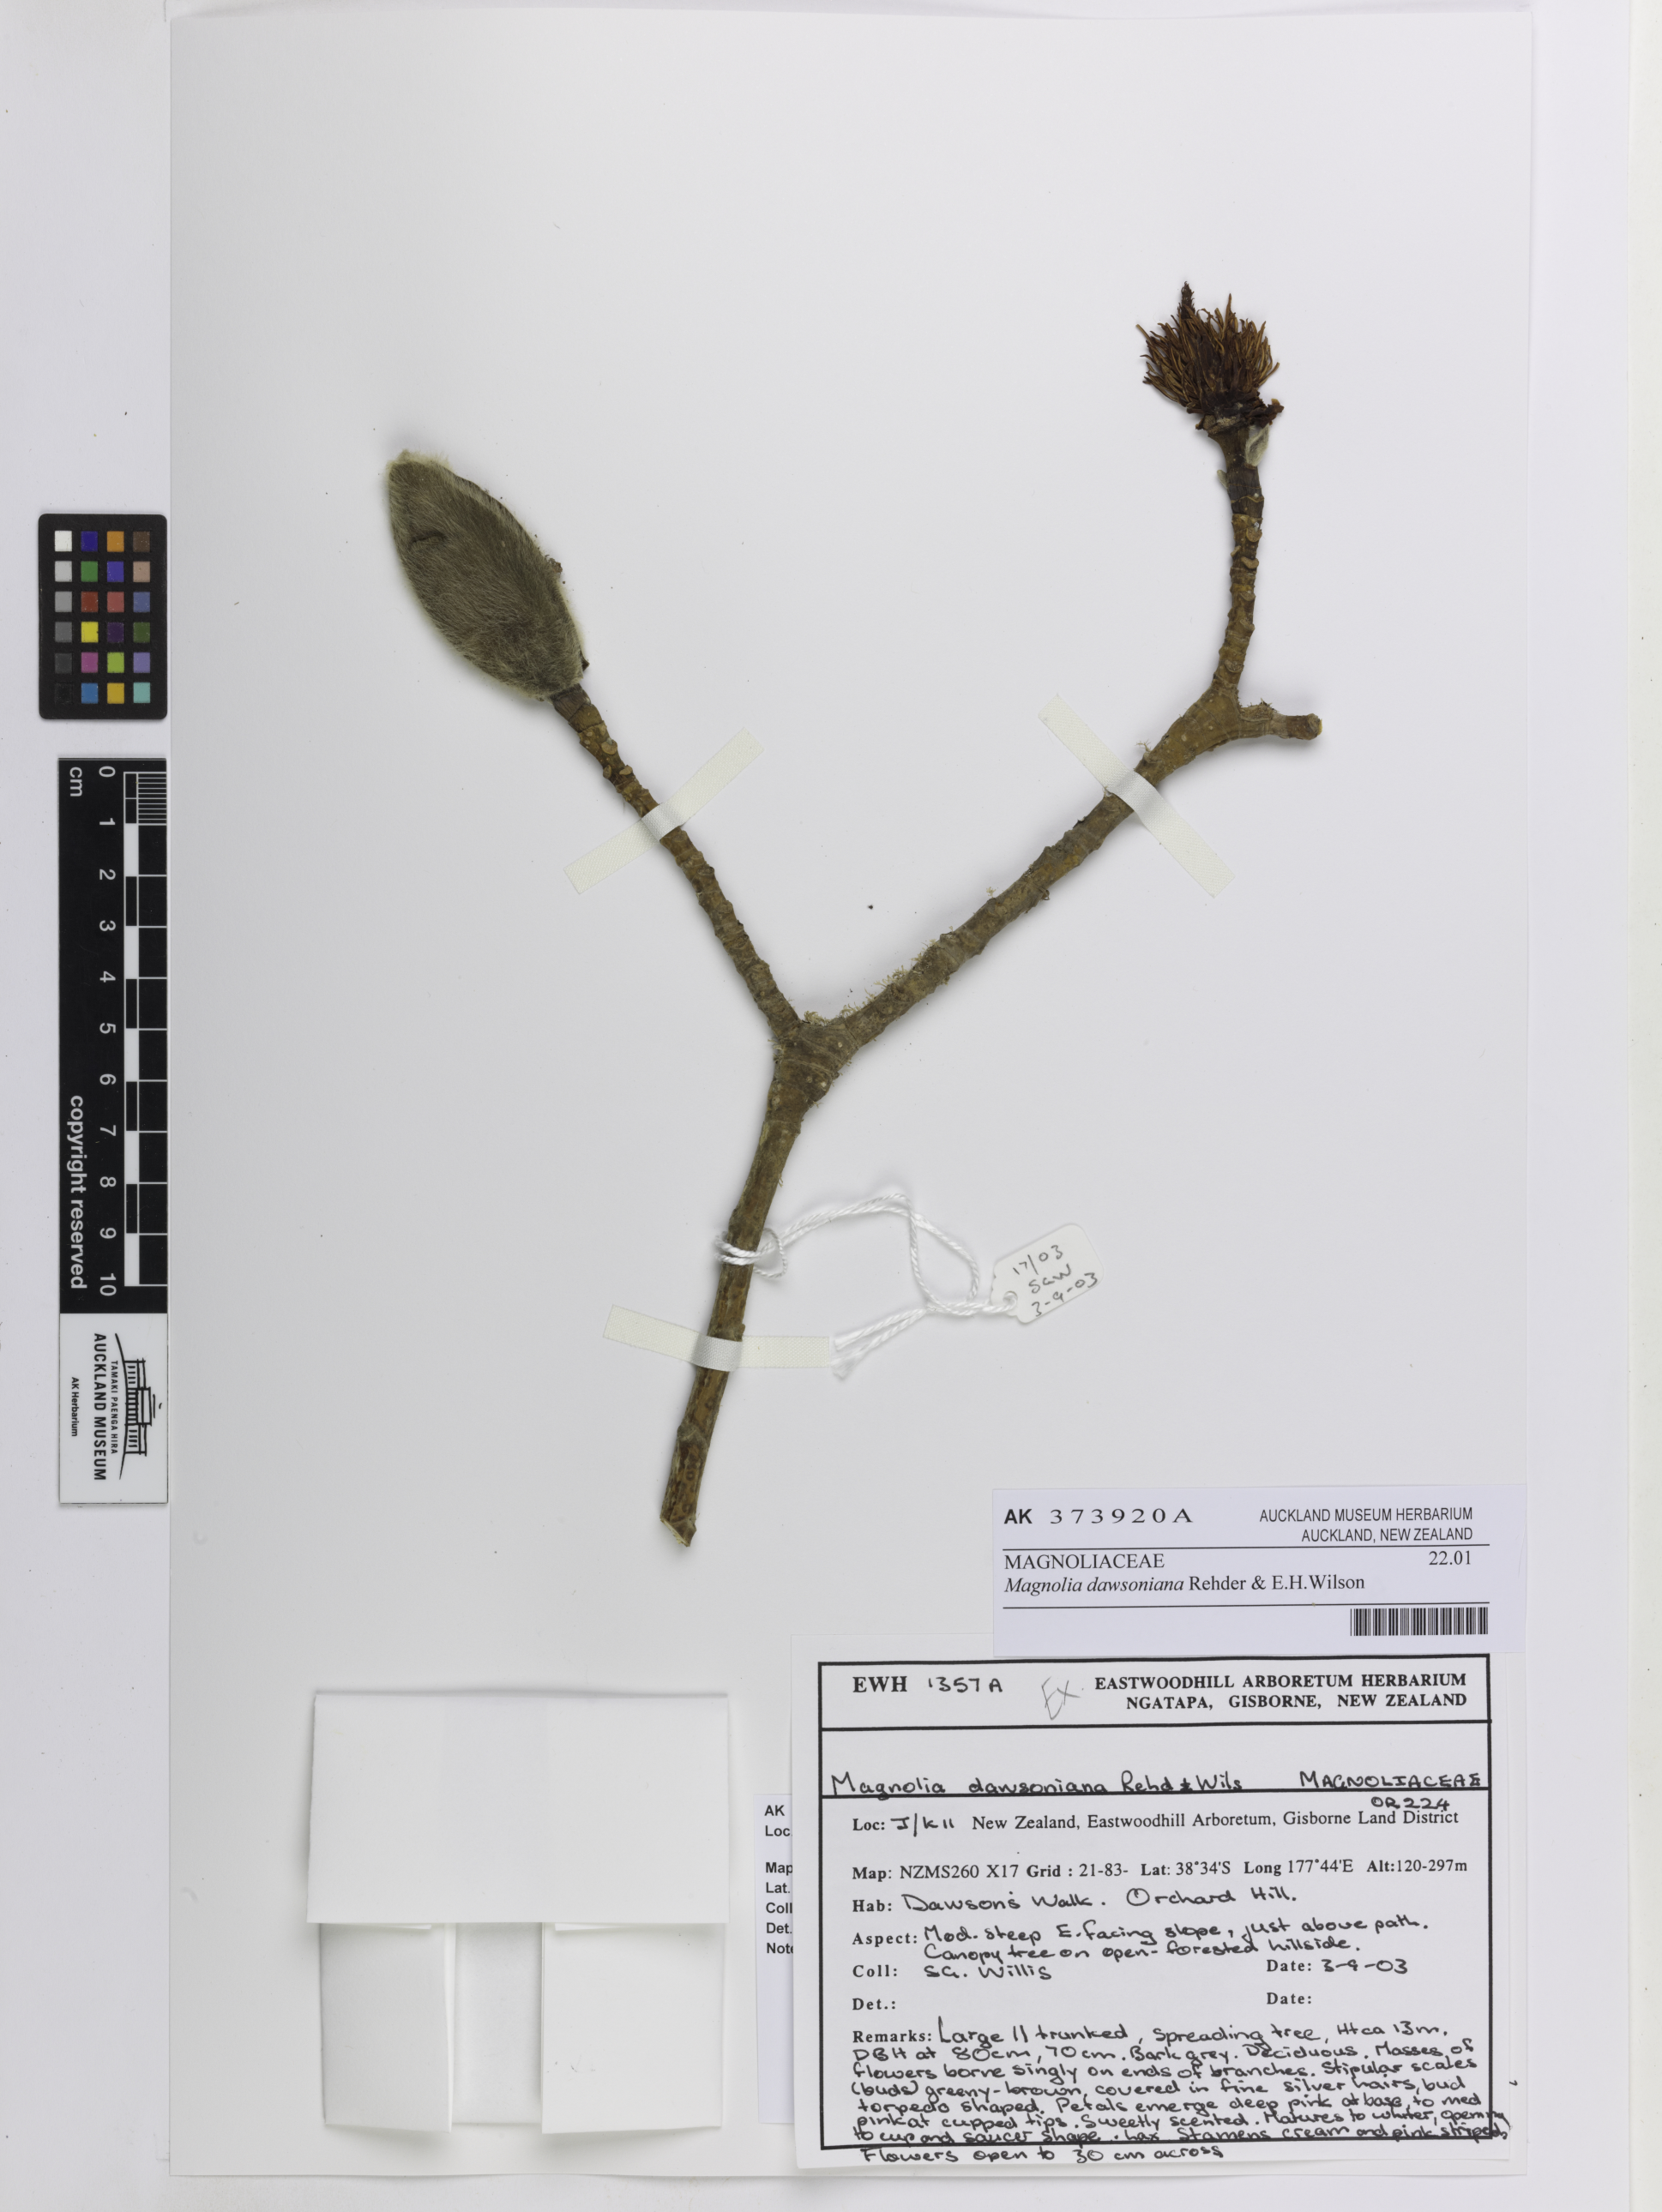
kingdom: Plantae
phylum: Tracheophyta
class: Magnoliopsida
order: Magnoliales
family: Magnoliaceae
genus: Magnolia
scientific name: Magnolia dawsoniana
